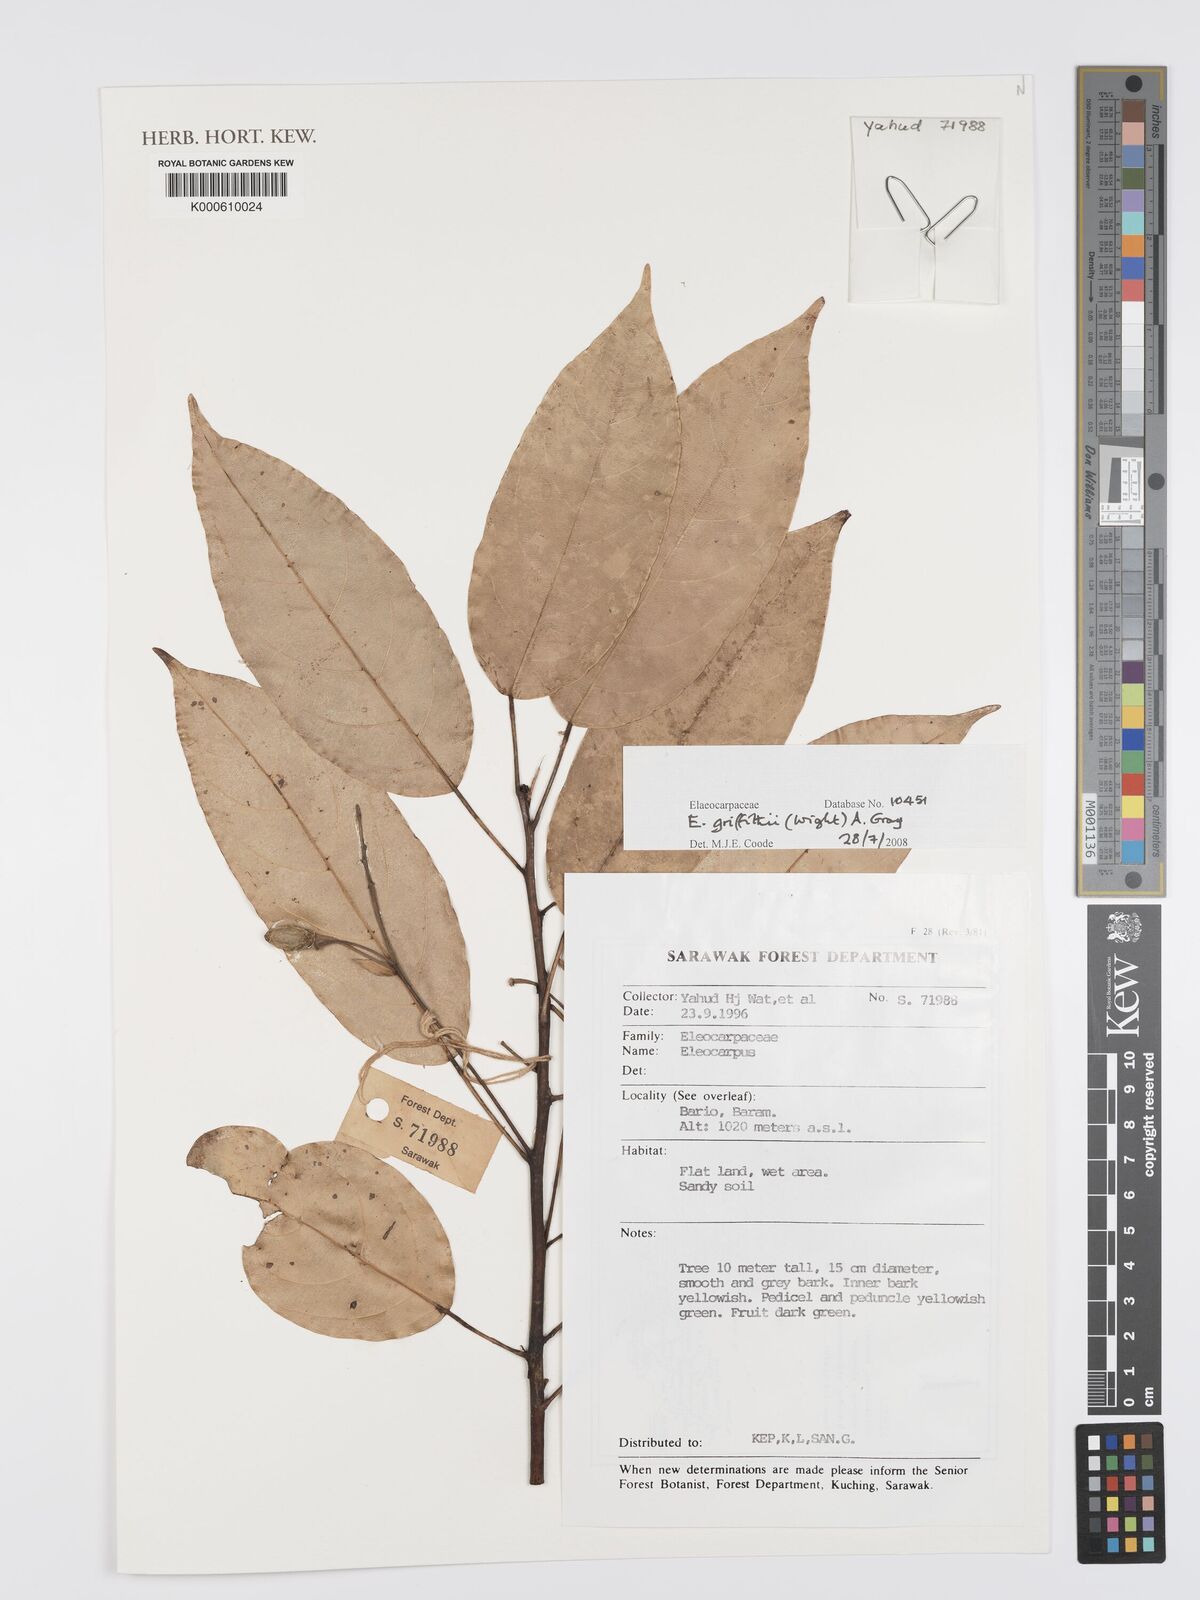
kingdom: Plantae
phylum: Tracheophyta
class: Magnoliopsida
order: Oxalidales
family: Elaeocarpaceae
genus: Elaeocarpus
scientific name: Elaeocarpus
